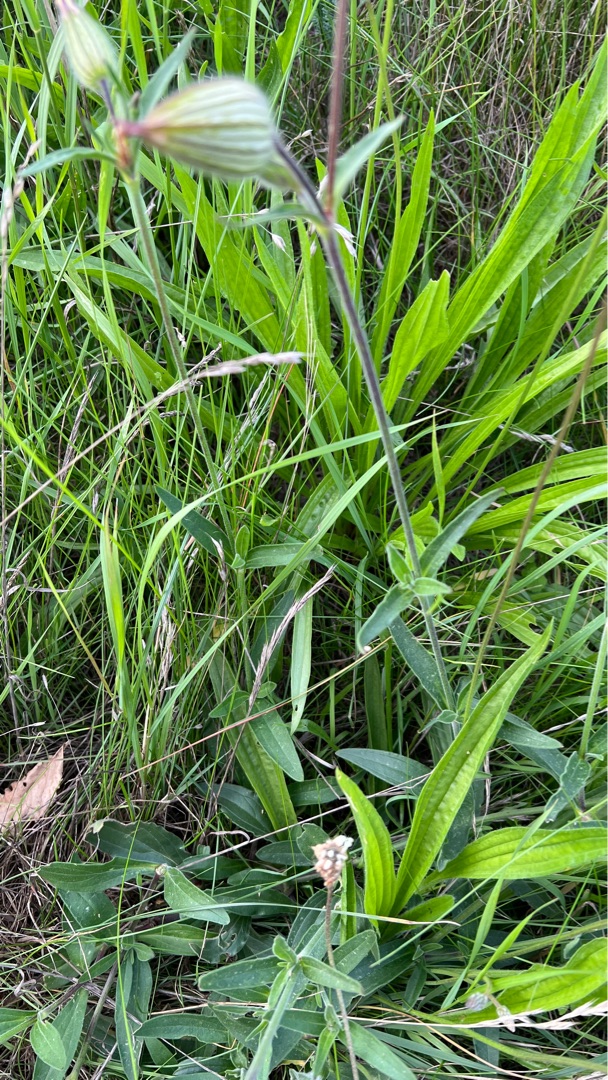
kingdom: Plantae
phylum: Tracheophyta
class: Magnoliopsida
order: Caryophyllales
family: Caryophyllaceae
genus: Silene
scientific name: Silene latifolia
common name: Aftenpragtstjerne
